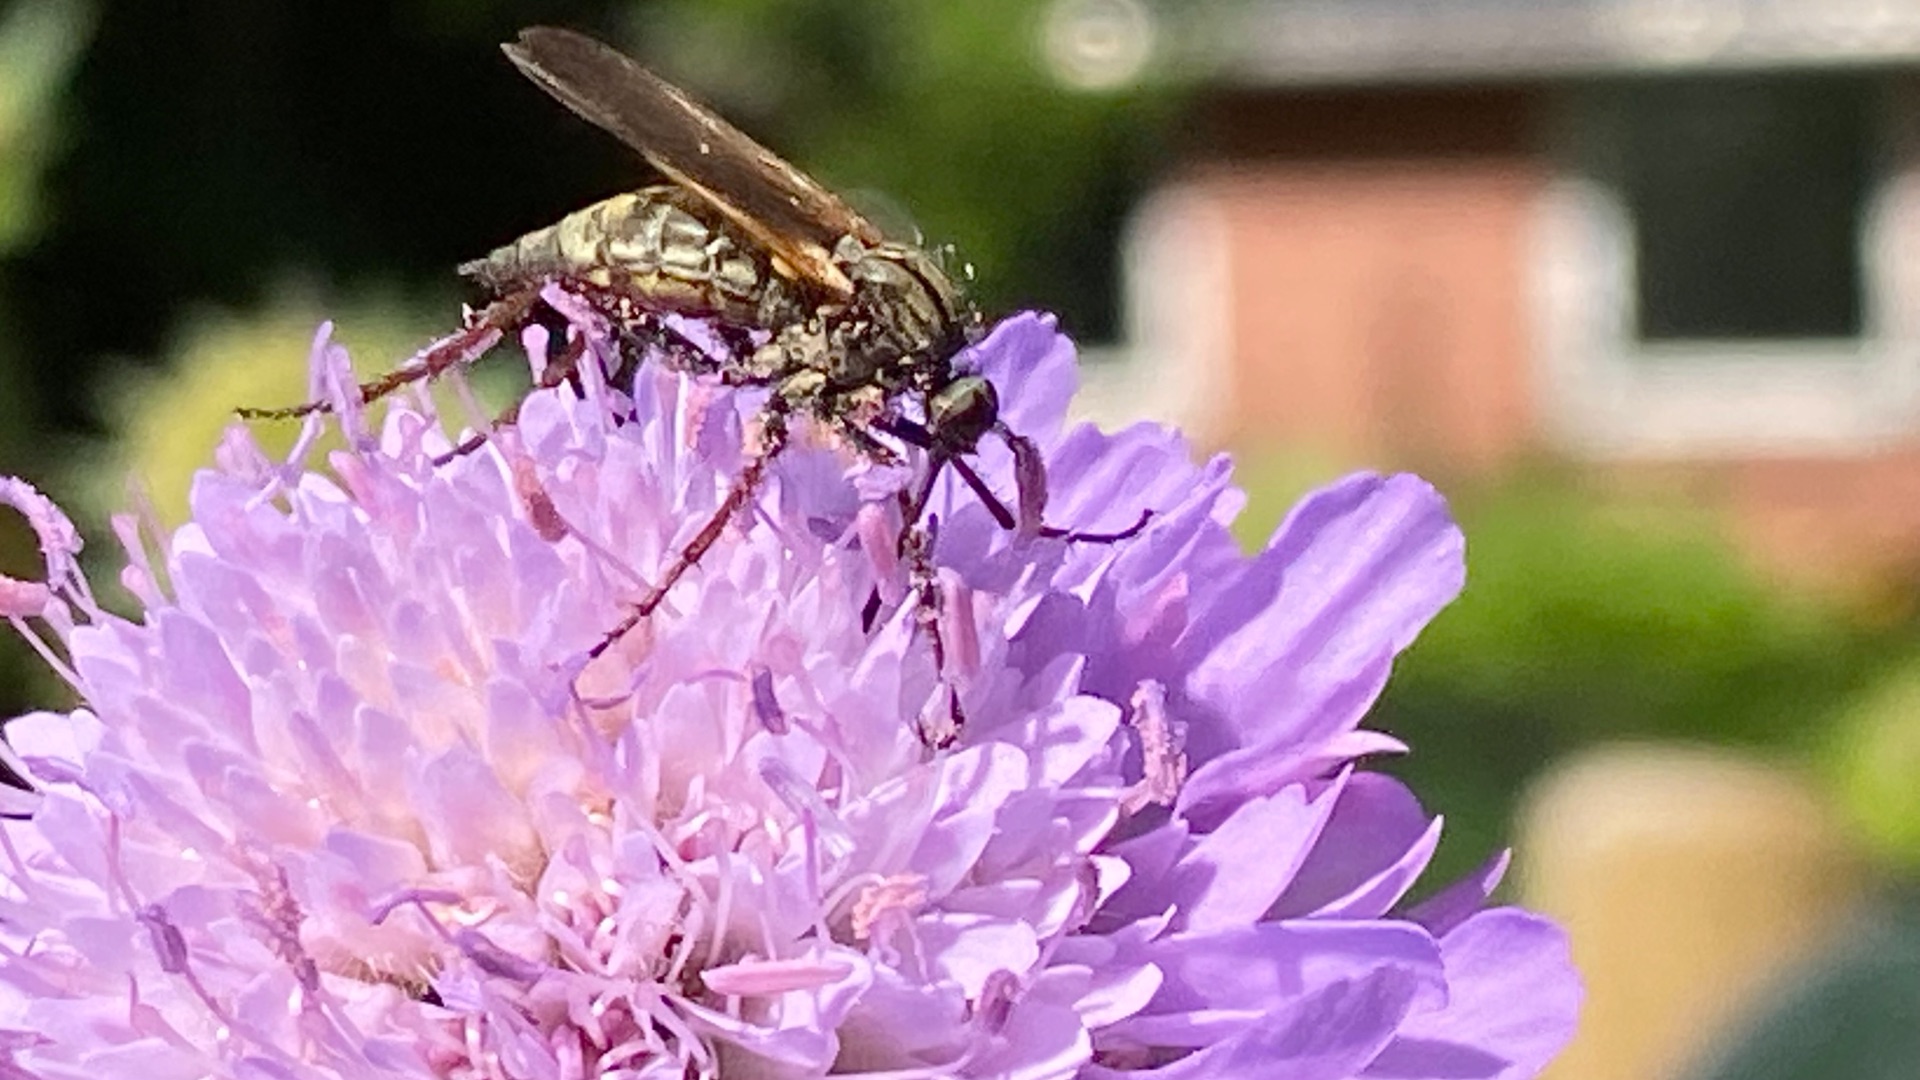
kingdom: Animalia
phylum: Arthropoda
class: Insecta
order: Diptera
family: Empididae
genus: Empis
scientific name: Empis tessellata
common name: Stor danseflue
